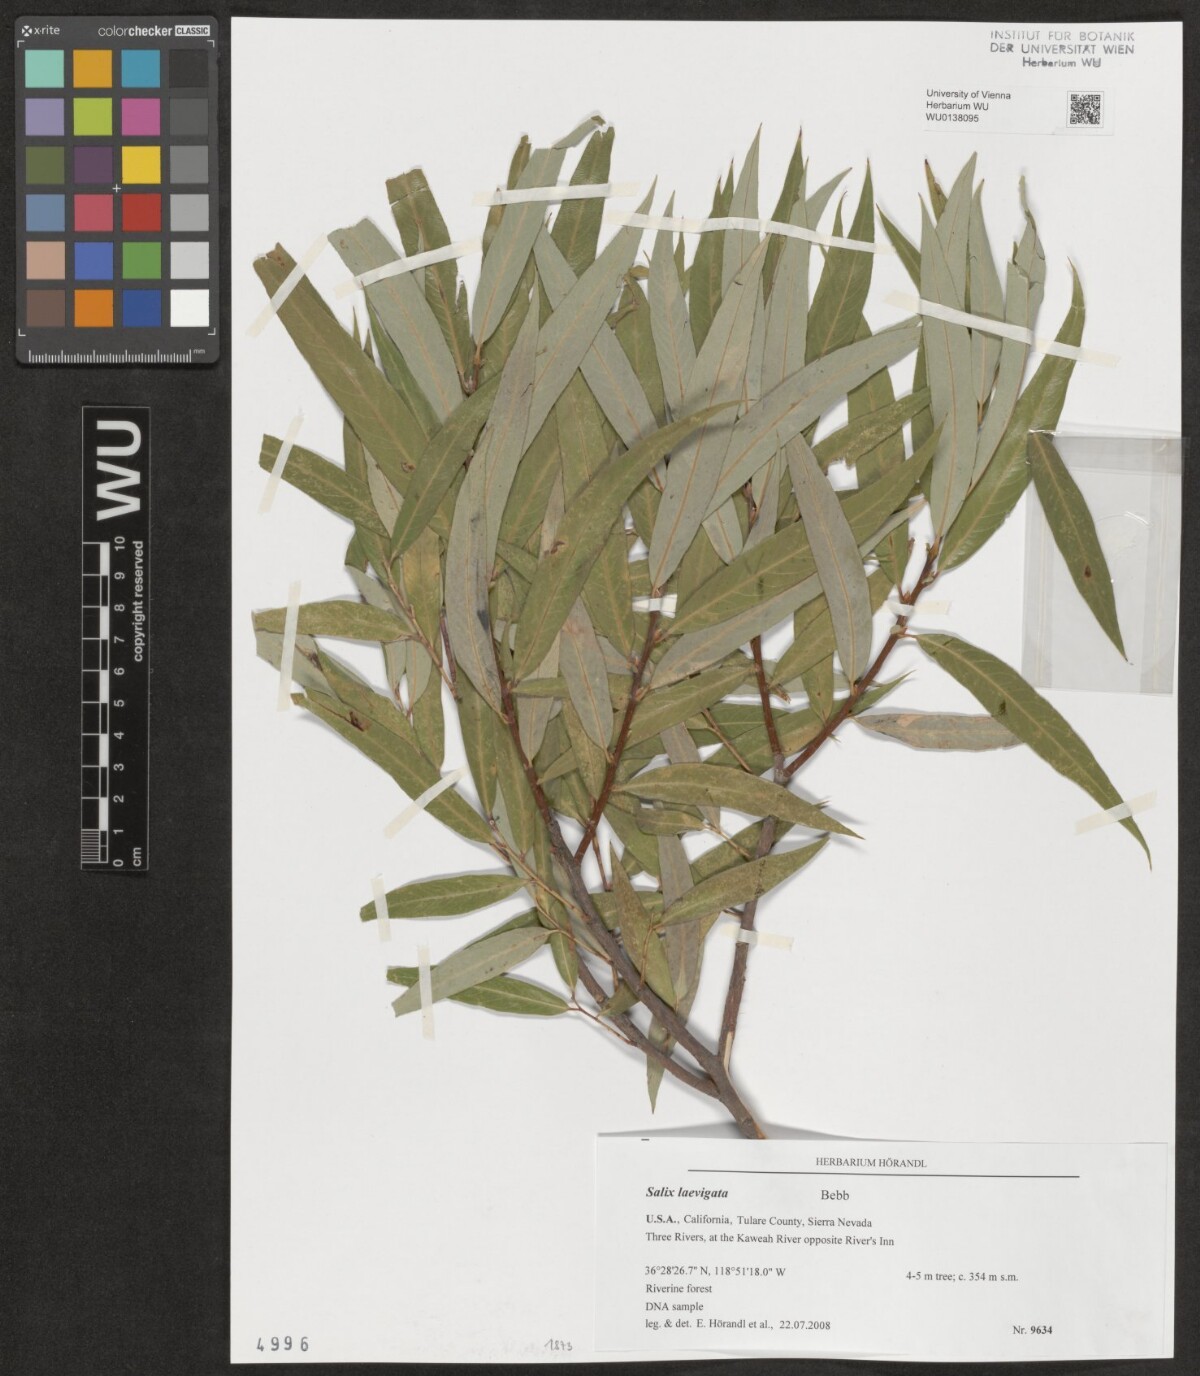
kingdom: Plantae
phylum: Tracheophyta
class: Magnoliopsida
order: Malpighiales
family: Salicaceae
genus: Salix
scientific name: Salix laevigata
